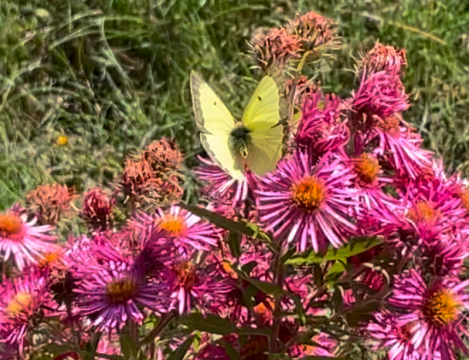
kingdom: Animalia
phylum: Arthropoda
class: Insecta
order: Lepidoptera
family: Pieridae
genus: Colias
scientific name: Colias philodice
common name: Clouded Sulphur
